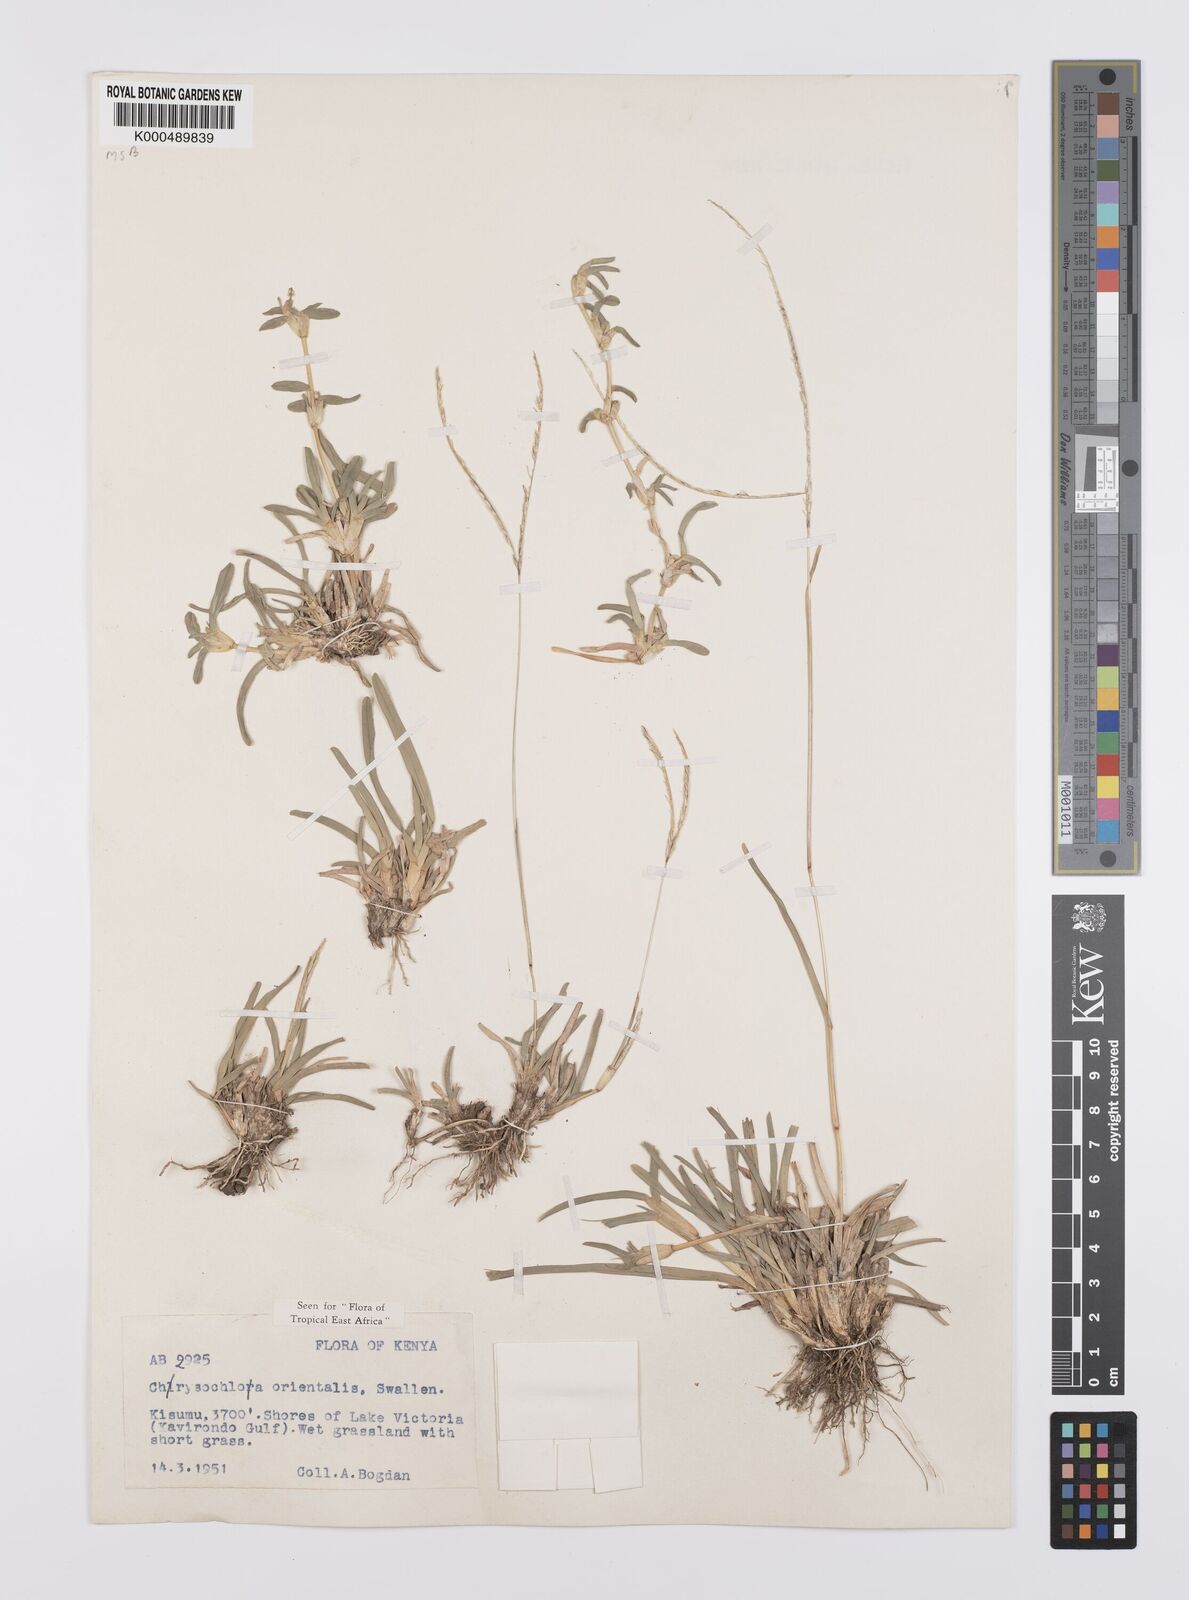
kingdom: Plantae
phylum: Tracheophyta
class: Liliopsida
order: Poales
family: Poaceae
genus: Chrysochloa
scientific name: Chrysochloa
